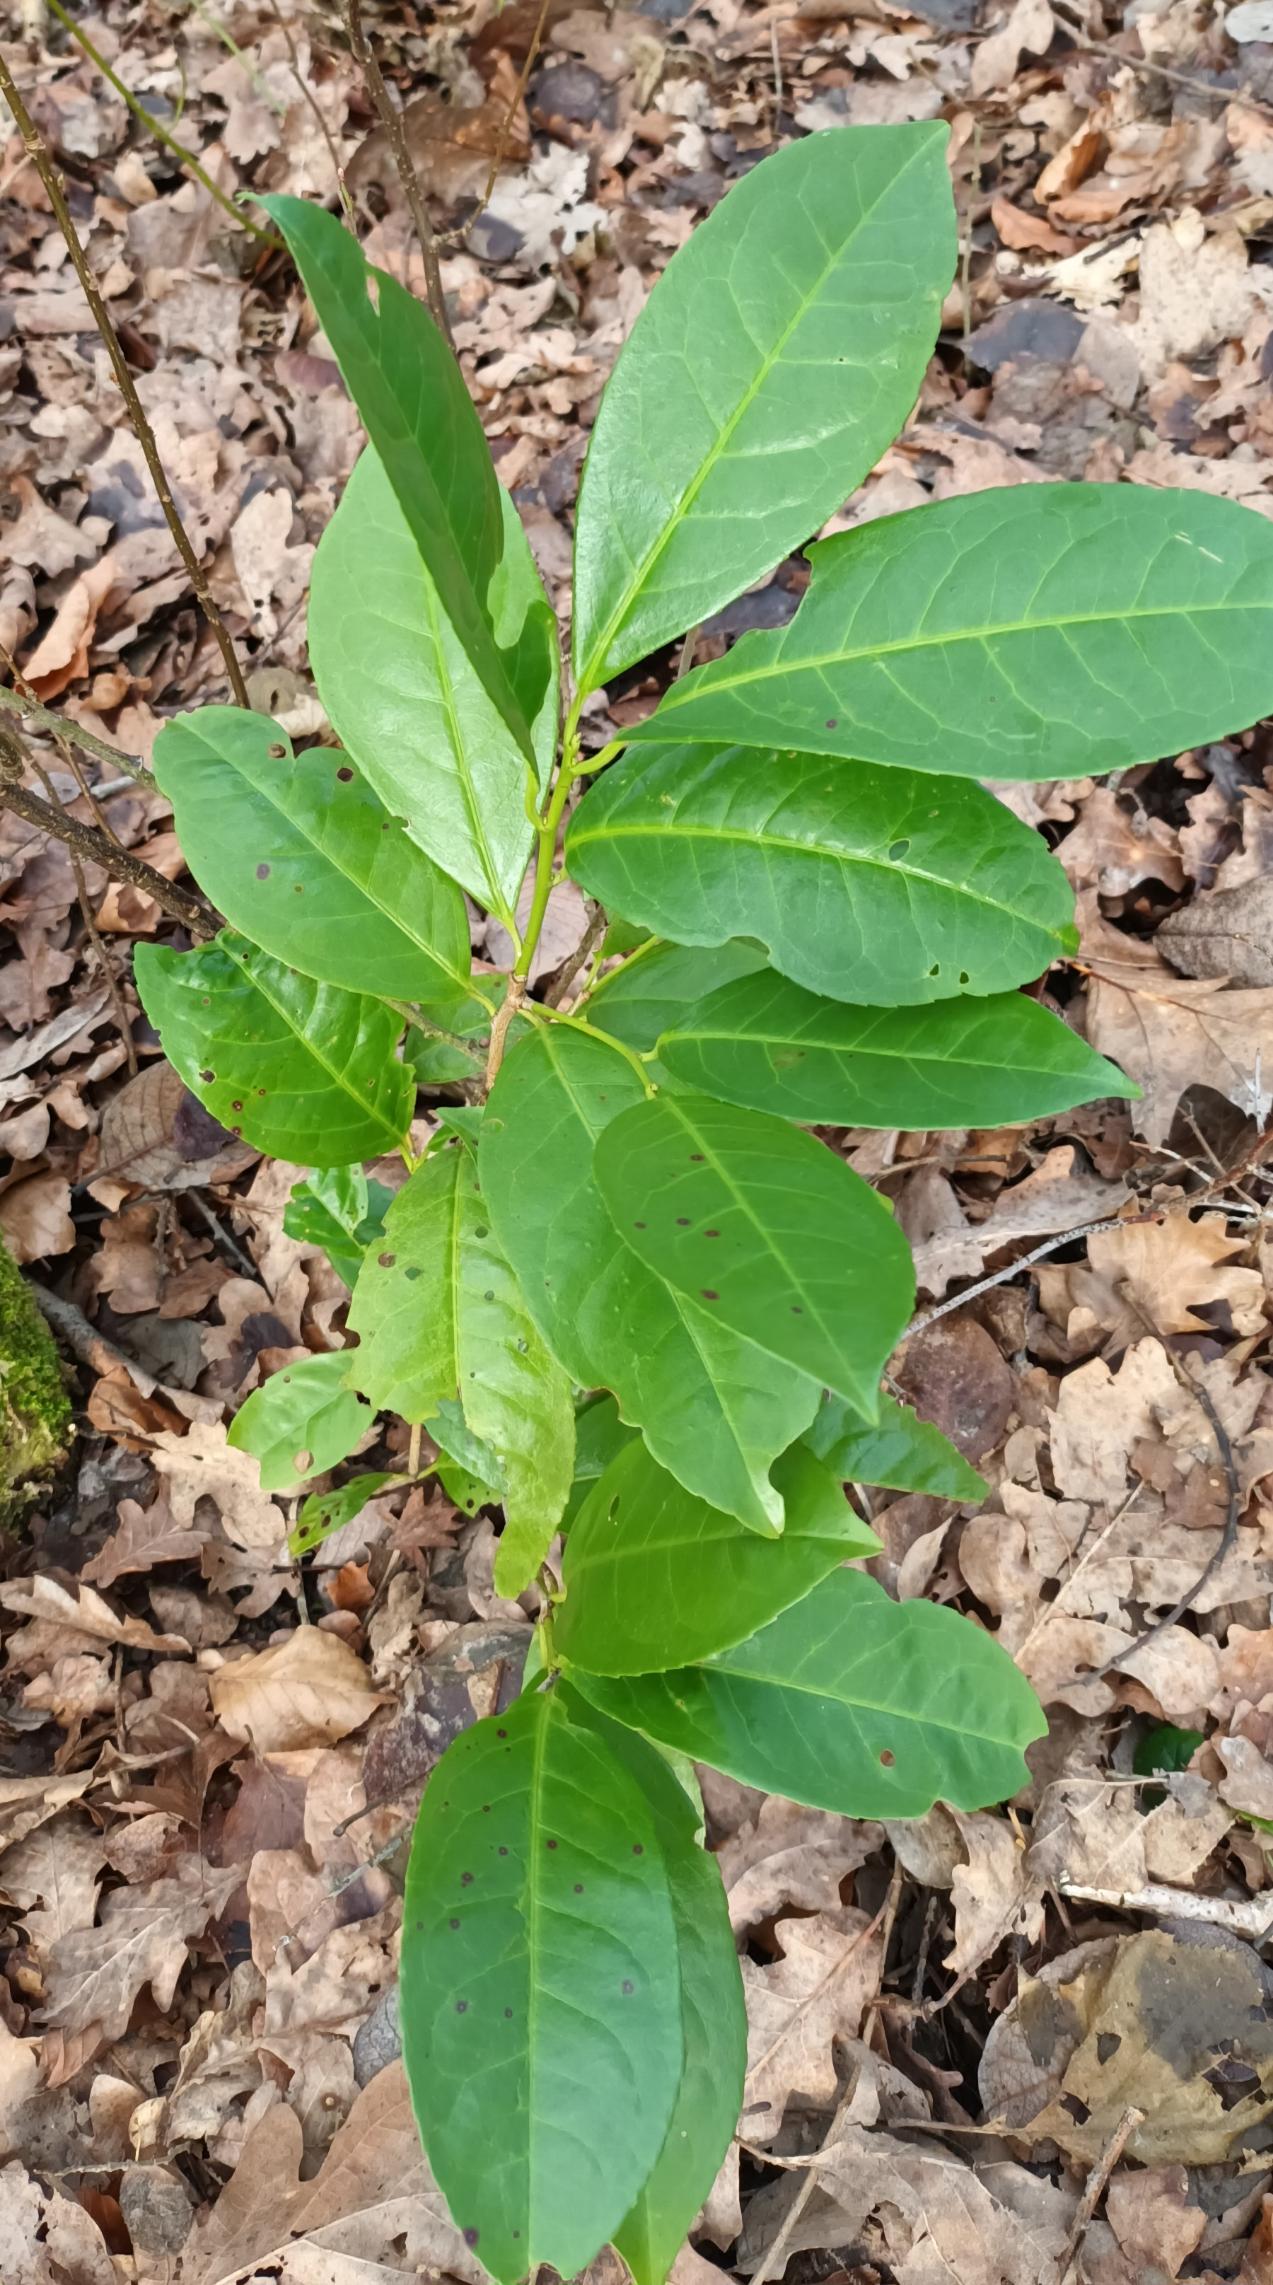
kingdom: Plantae
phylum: Tracheophyta
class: Magnoliopsida
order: Rosales
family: Rosaceae
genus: Prunus
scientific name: Prunus laurocerasus
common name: Laurbærkirsebær
